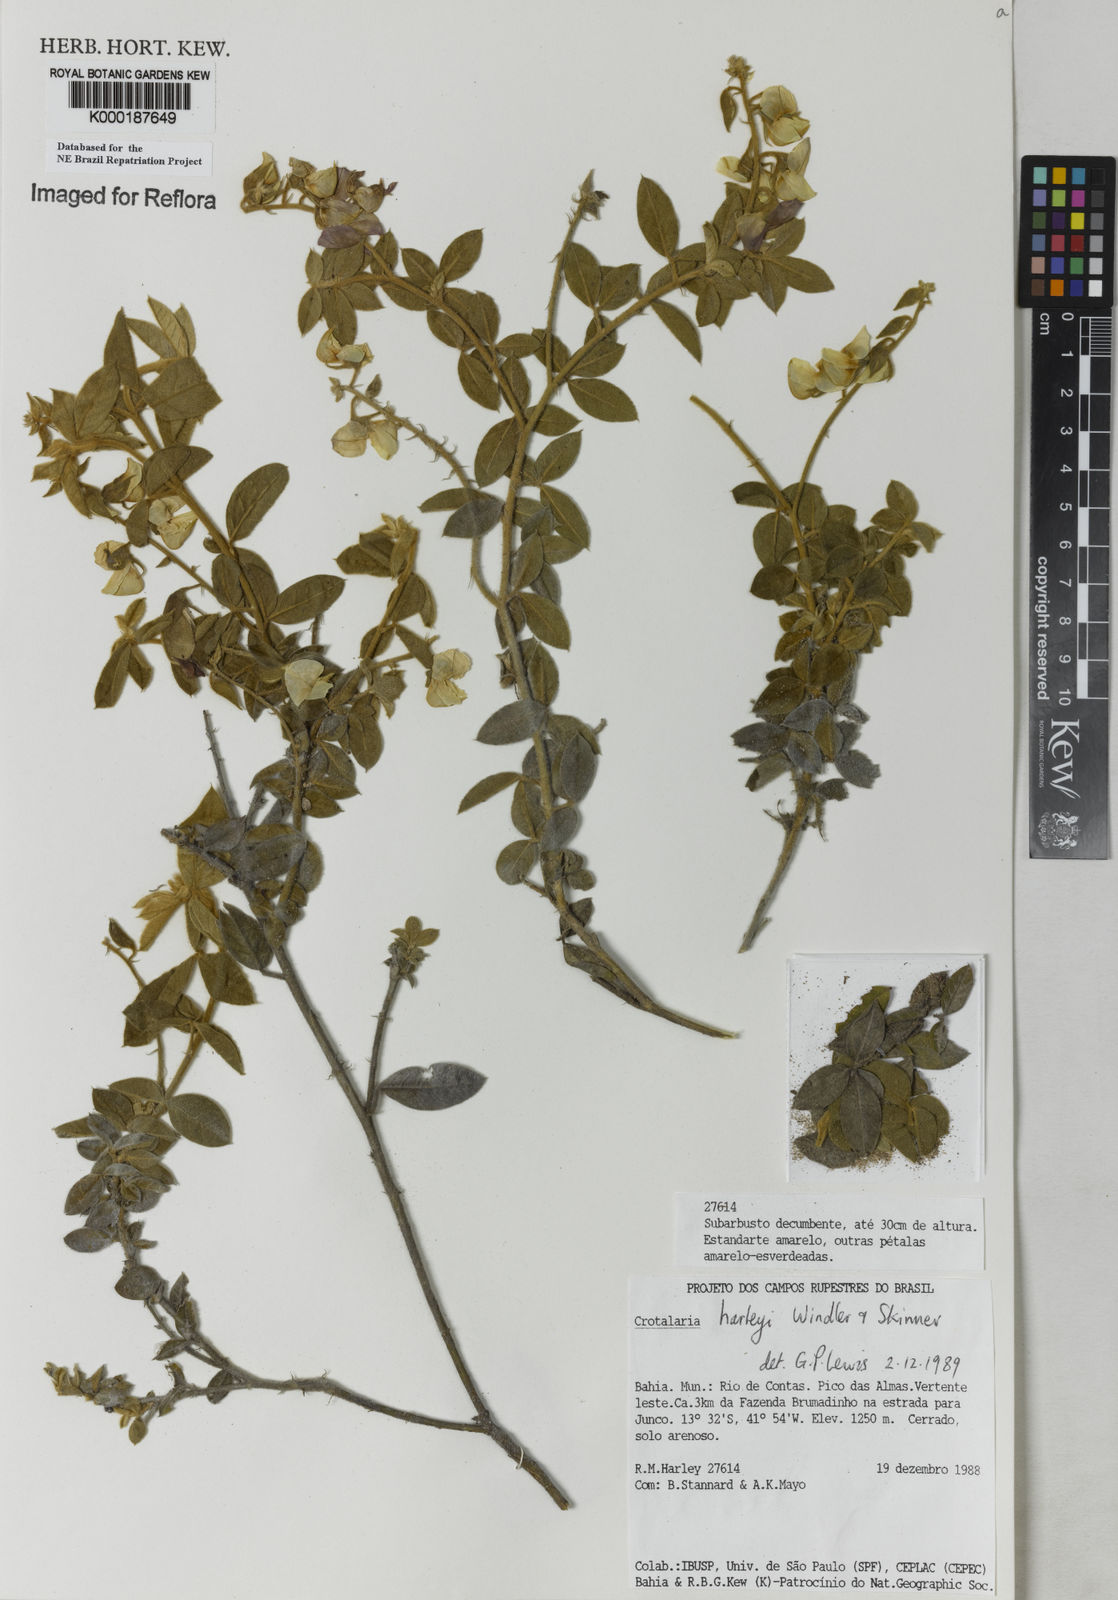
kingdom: Plantae
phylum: Tracheophyta
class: Magnoliopsida
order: Fabales
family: Fabaceae
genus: Crotalaria
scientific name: Crotalaria harleyi
